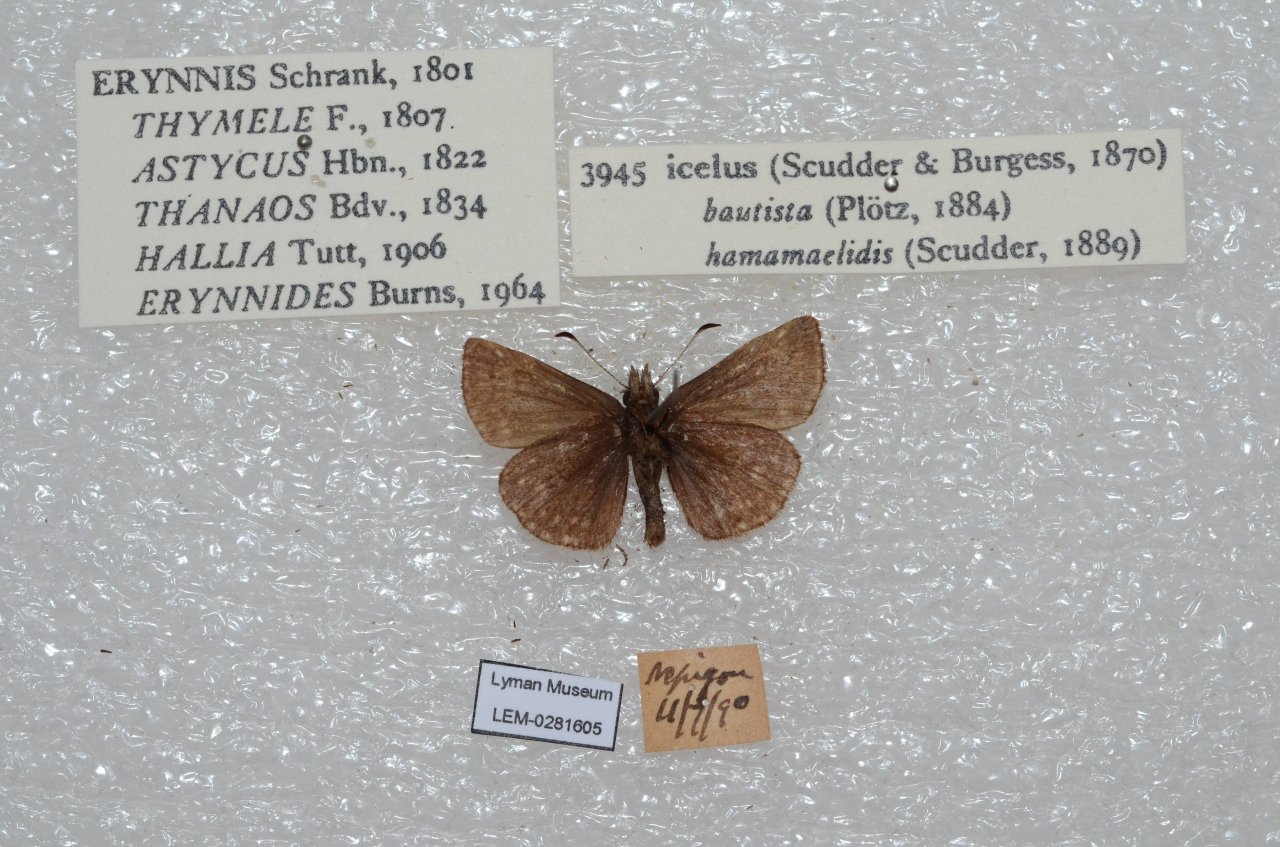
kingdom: Animalia
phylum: Arthropoda
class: Insecta
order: Lepidoptera
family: Hesperiidae
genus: Erynnis
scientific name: Erynnis icelus
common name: Dreamy Duskywing
